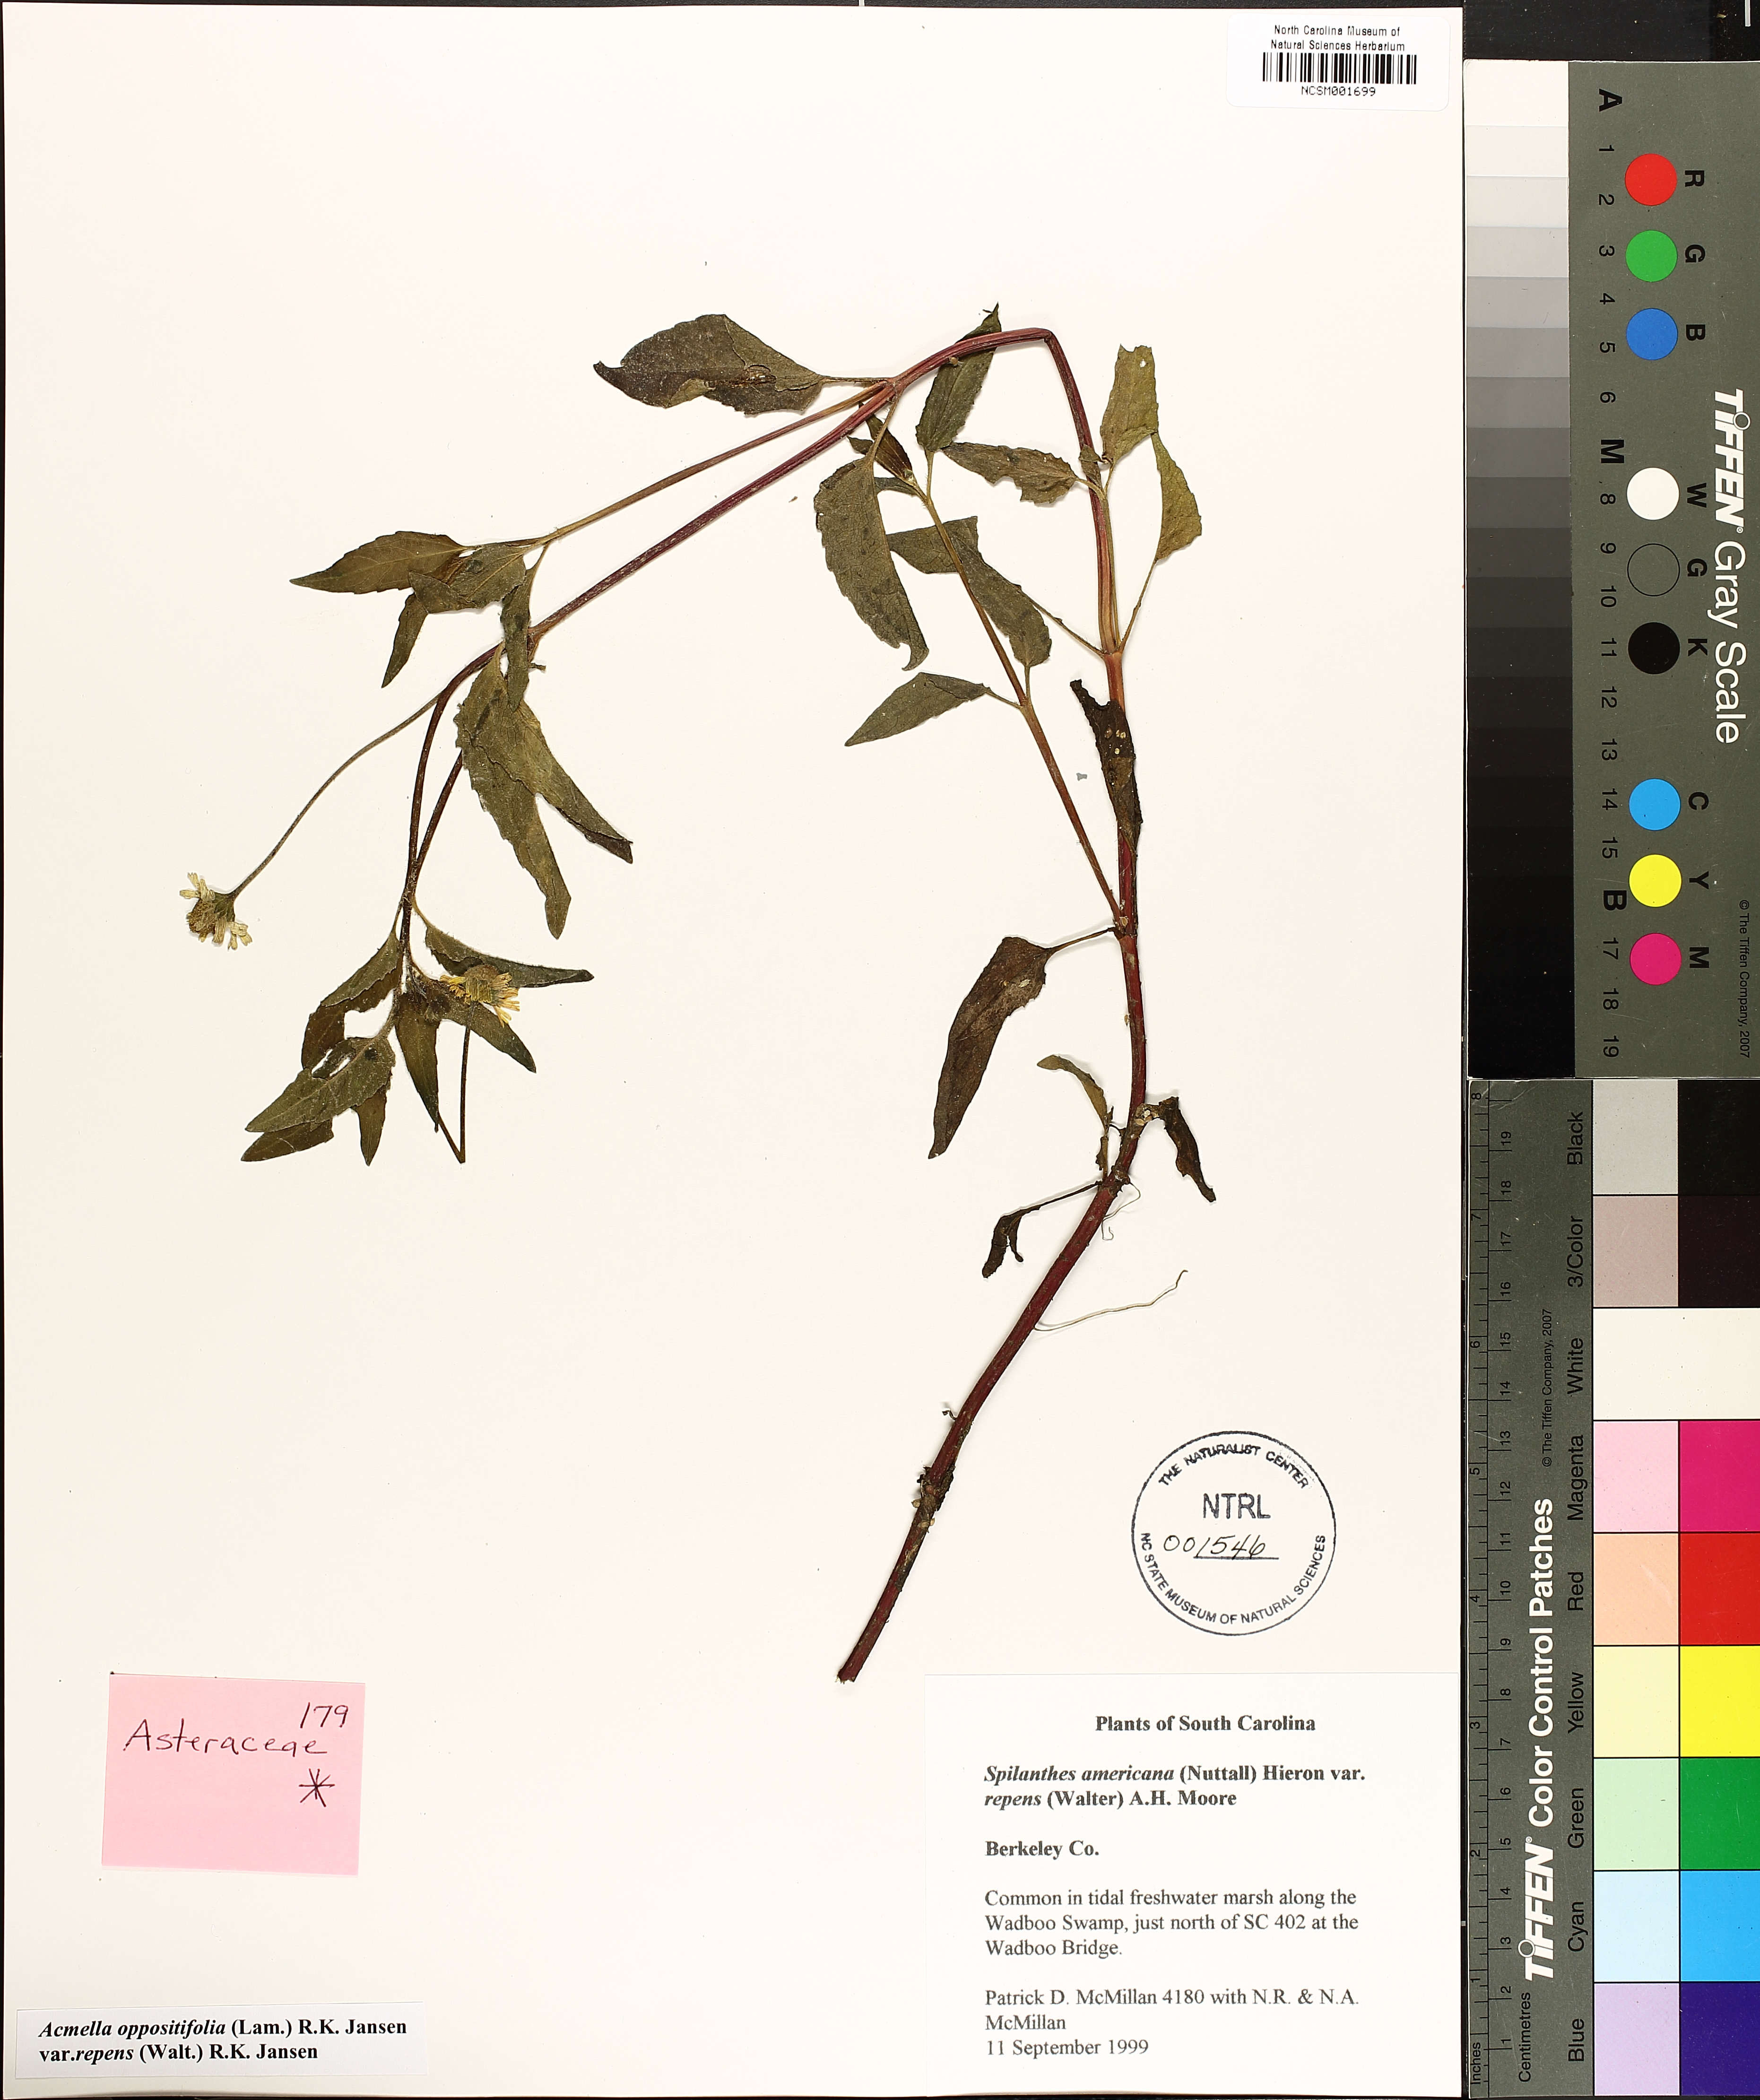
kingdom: Plantae
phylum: Tracheophyta
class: Magnoliopsida
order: Asterales
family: Asteraceae
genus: Acmella
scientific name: Acmella repens
